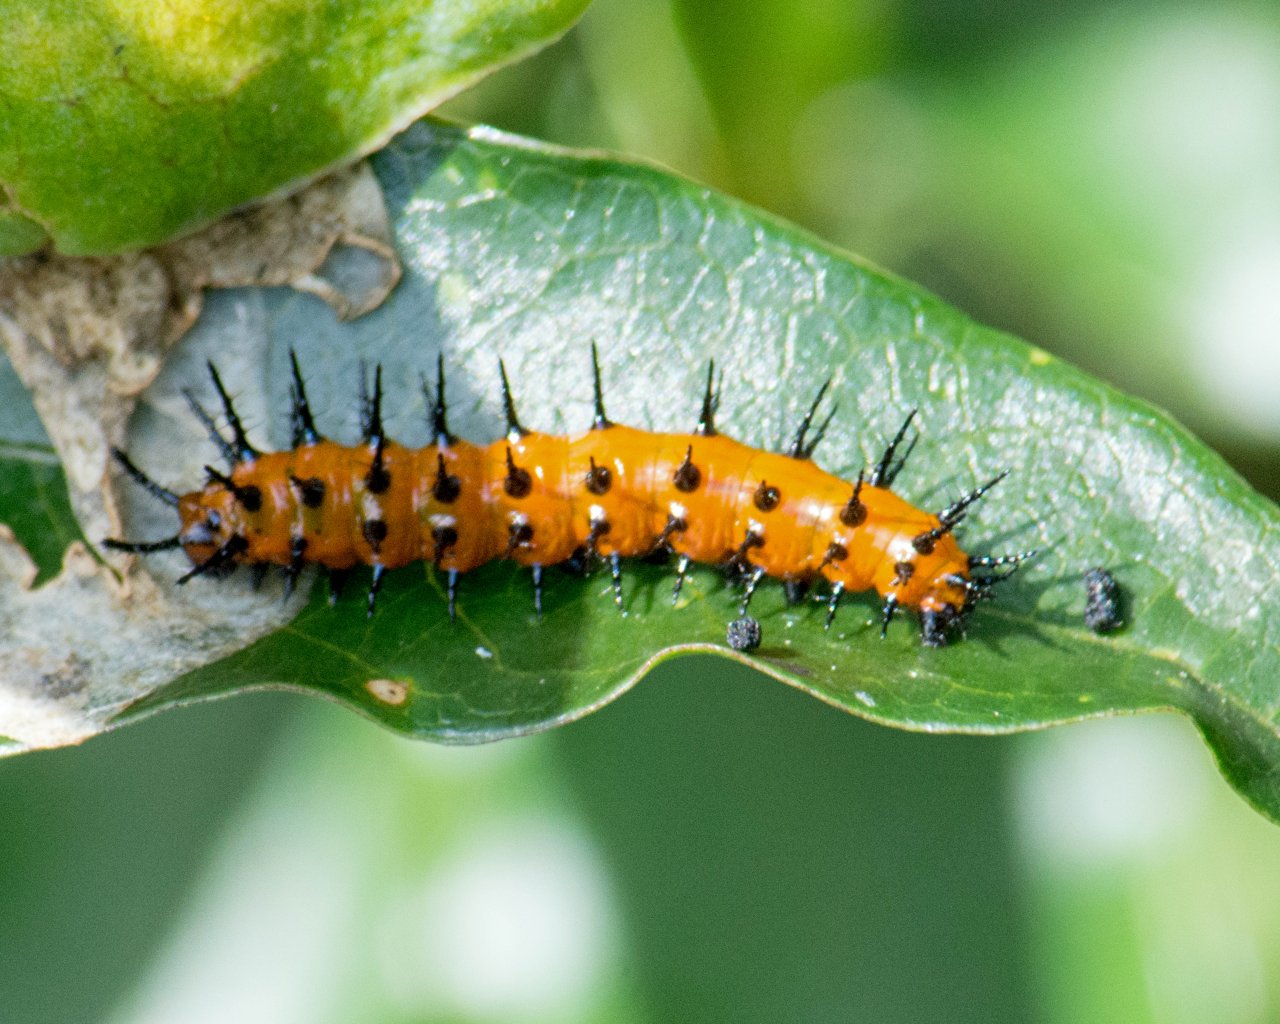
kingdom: Animalia
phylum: Arthropoda
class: Insecta
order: Lepidoptera
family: Nymphalidae
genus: Dione
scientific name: Dione vanillae
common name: Gulf Fritillary
